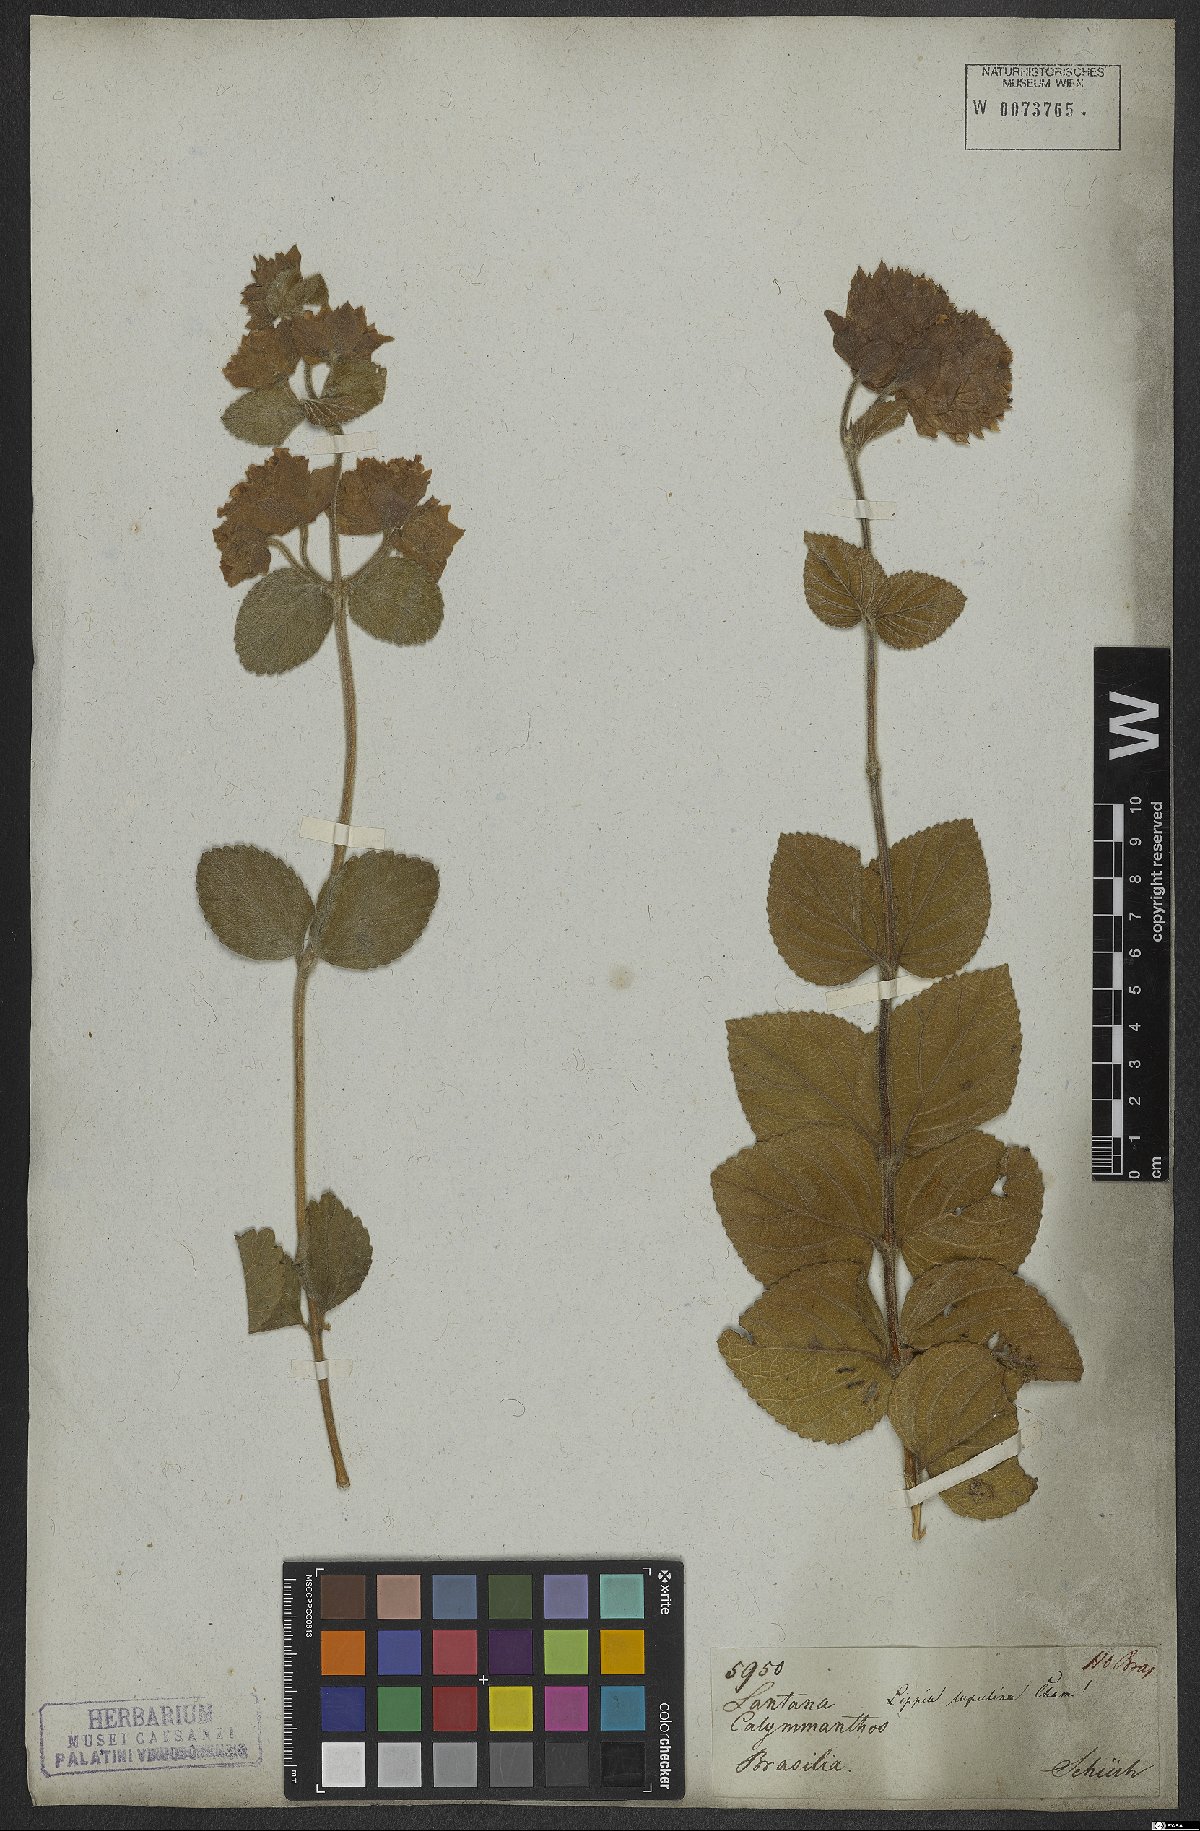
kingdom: Plantae
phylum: Tracheophyta
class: Magnoliopsida
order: Lamiales
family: Verbenaceae
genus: Lippia
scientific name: Lippia lupulina
